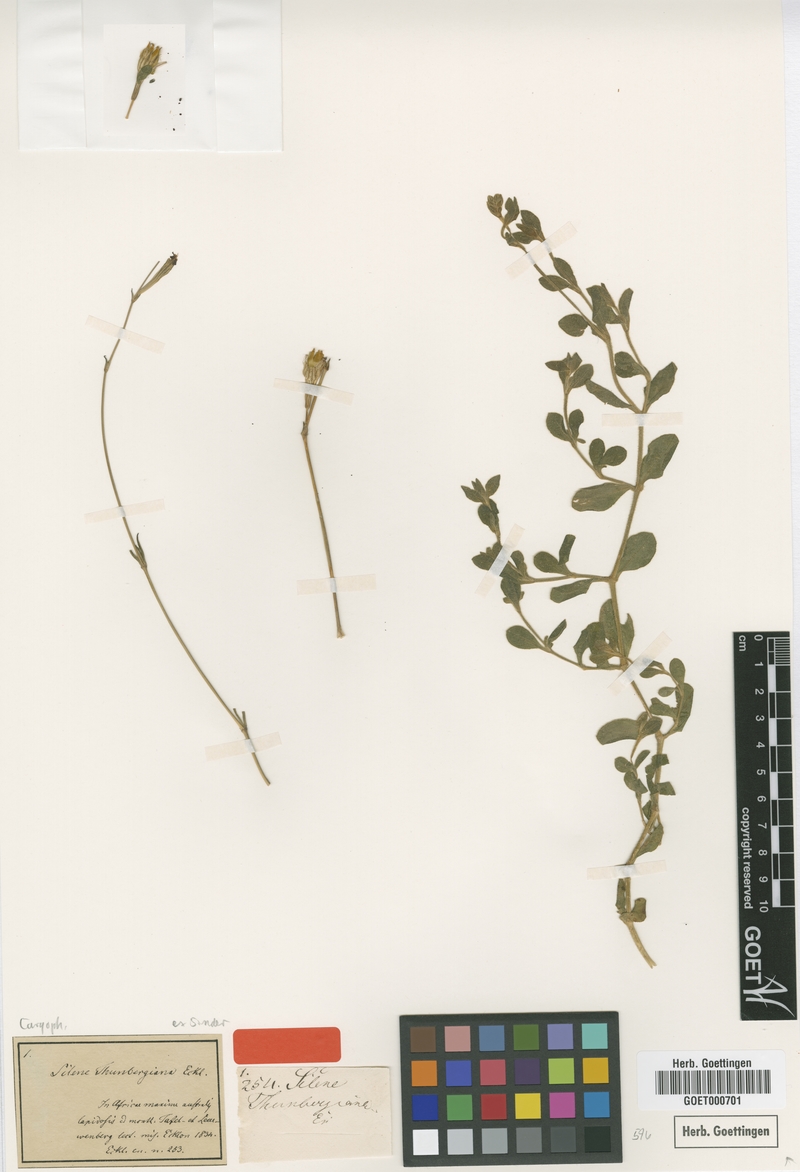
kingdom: Plantae
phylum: Tracheophyta
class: Magnoliopsida
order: Caryophyllales
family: Caryophyllaceae
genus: Silene
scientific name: Silene
